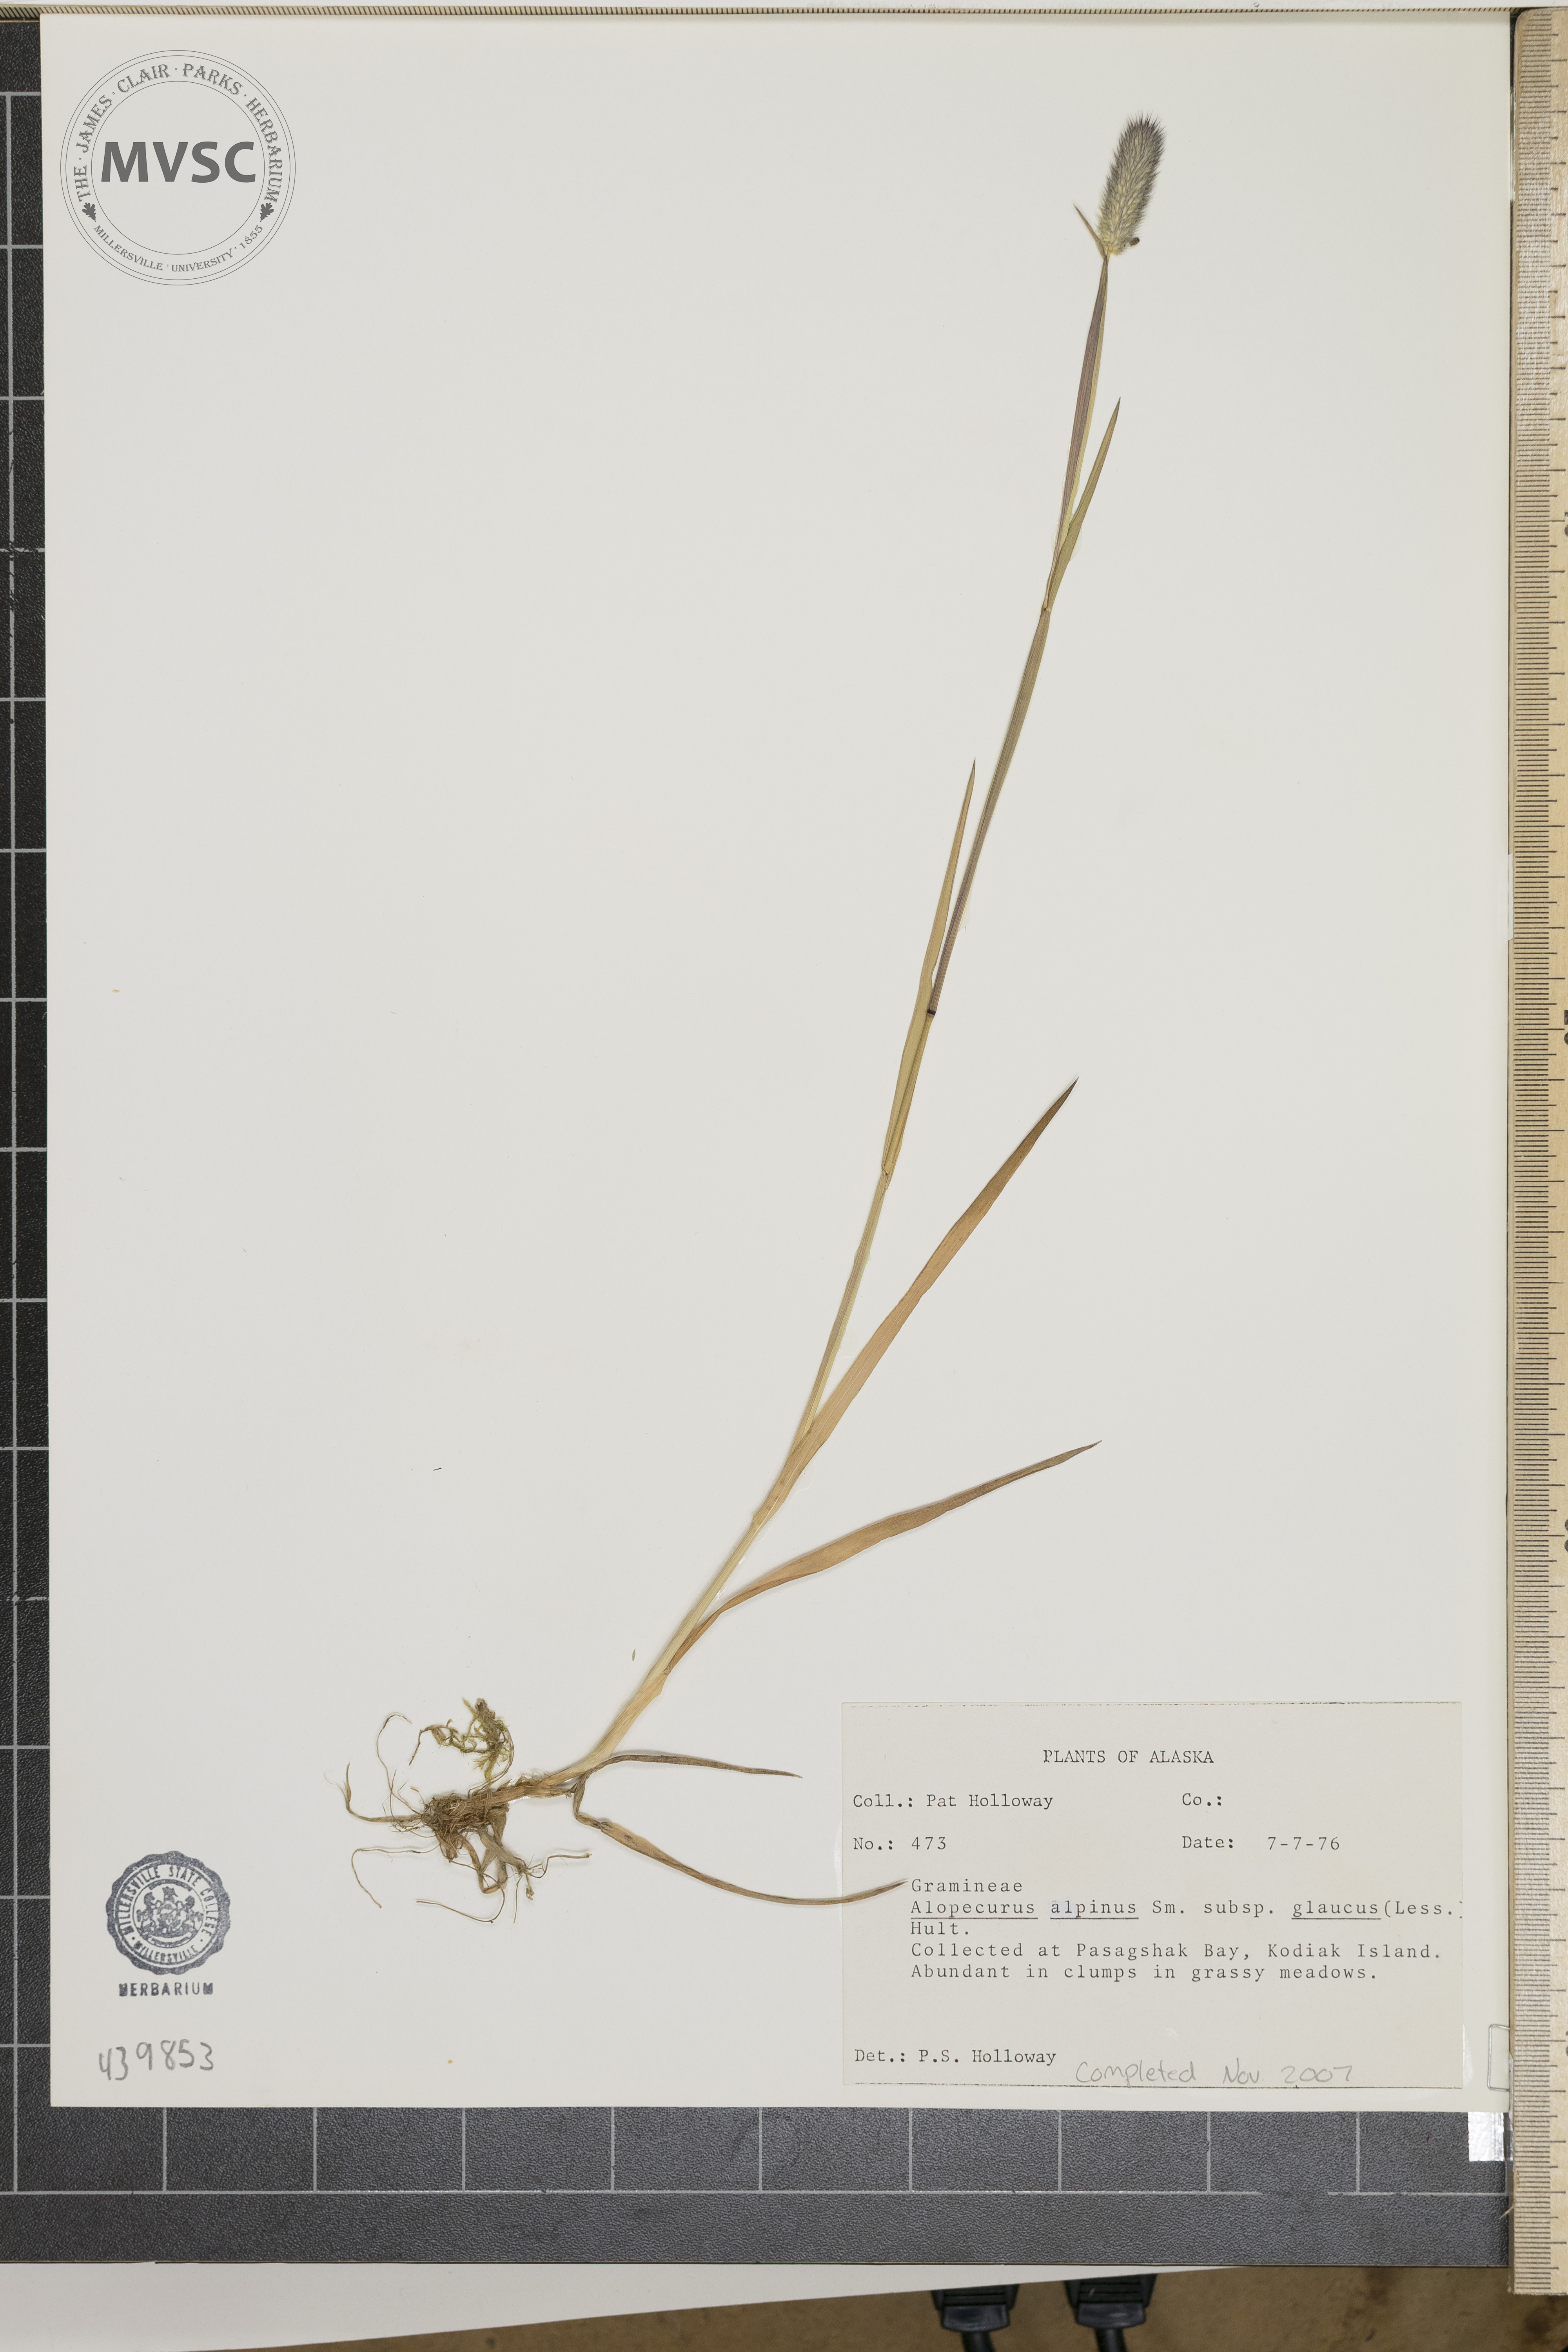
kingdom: Plantae
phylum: Tracheophyta
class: Liliopsida
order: Poales
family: Poaceae
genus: Alopecurus
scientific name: Alopecurus
